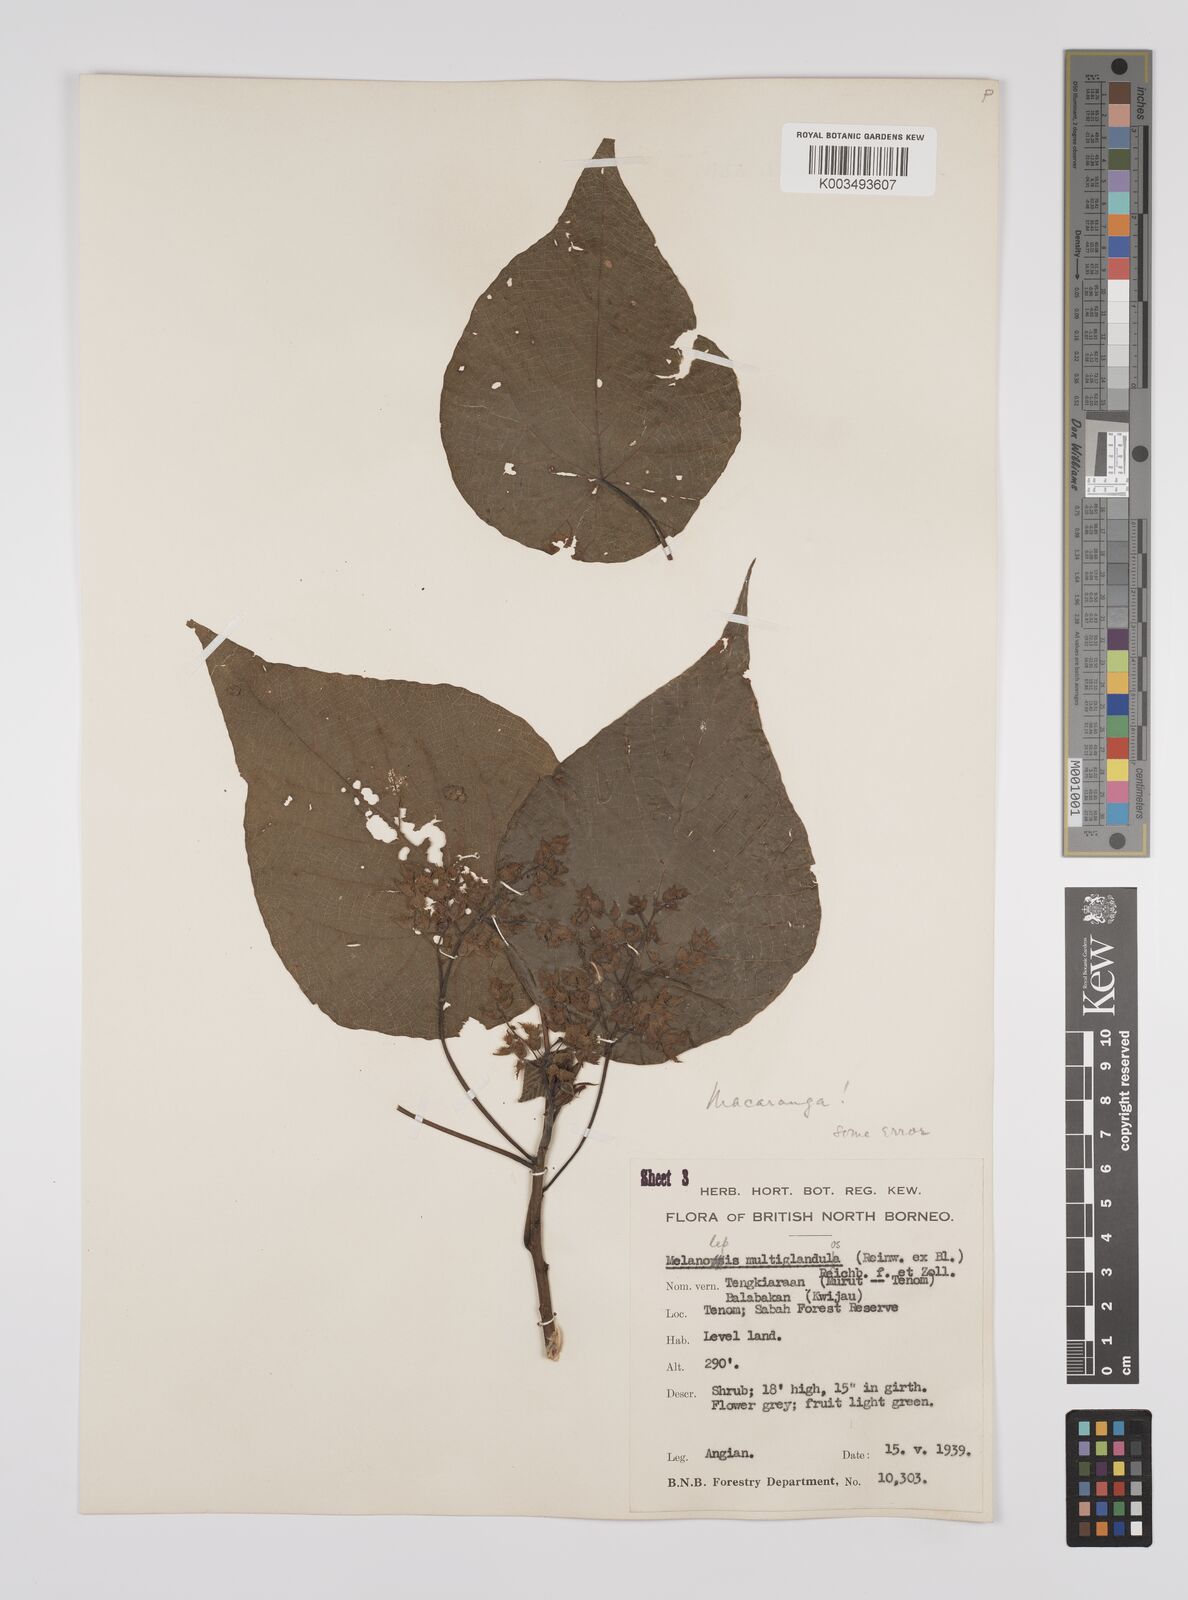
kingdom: Plantae
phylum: Tracheophyta
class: Magnoliopsida
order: Malpighiales
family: Euphorbiaceae
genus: Macaranga
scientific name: Macaranga tanarius
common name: Parasol leaf tree
